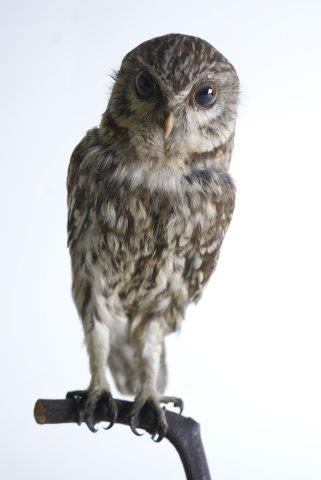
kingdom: Animalia
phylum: Chordata
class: Aves
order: Strigiformes
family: Strigidae
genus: Athene
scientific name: Athene noctua
